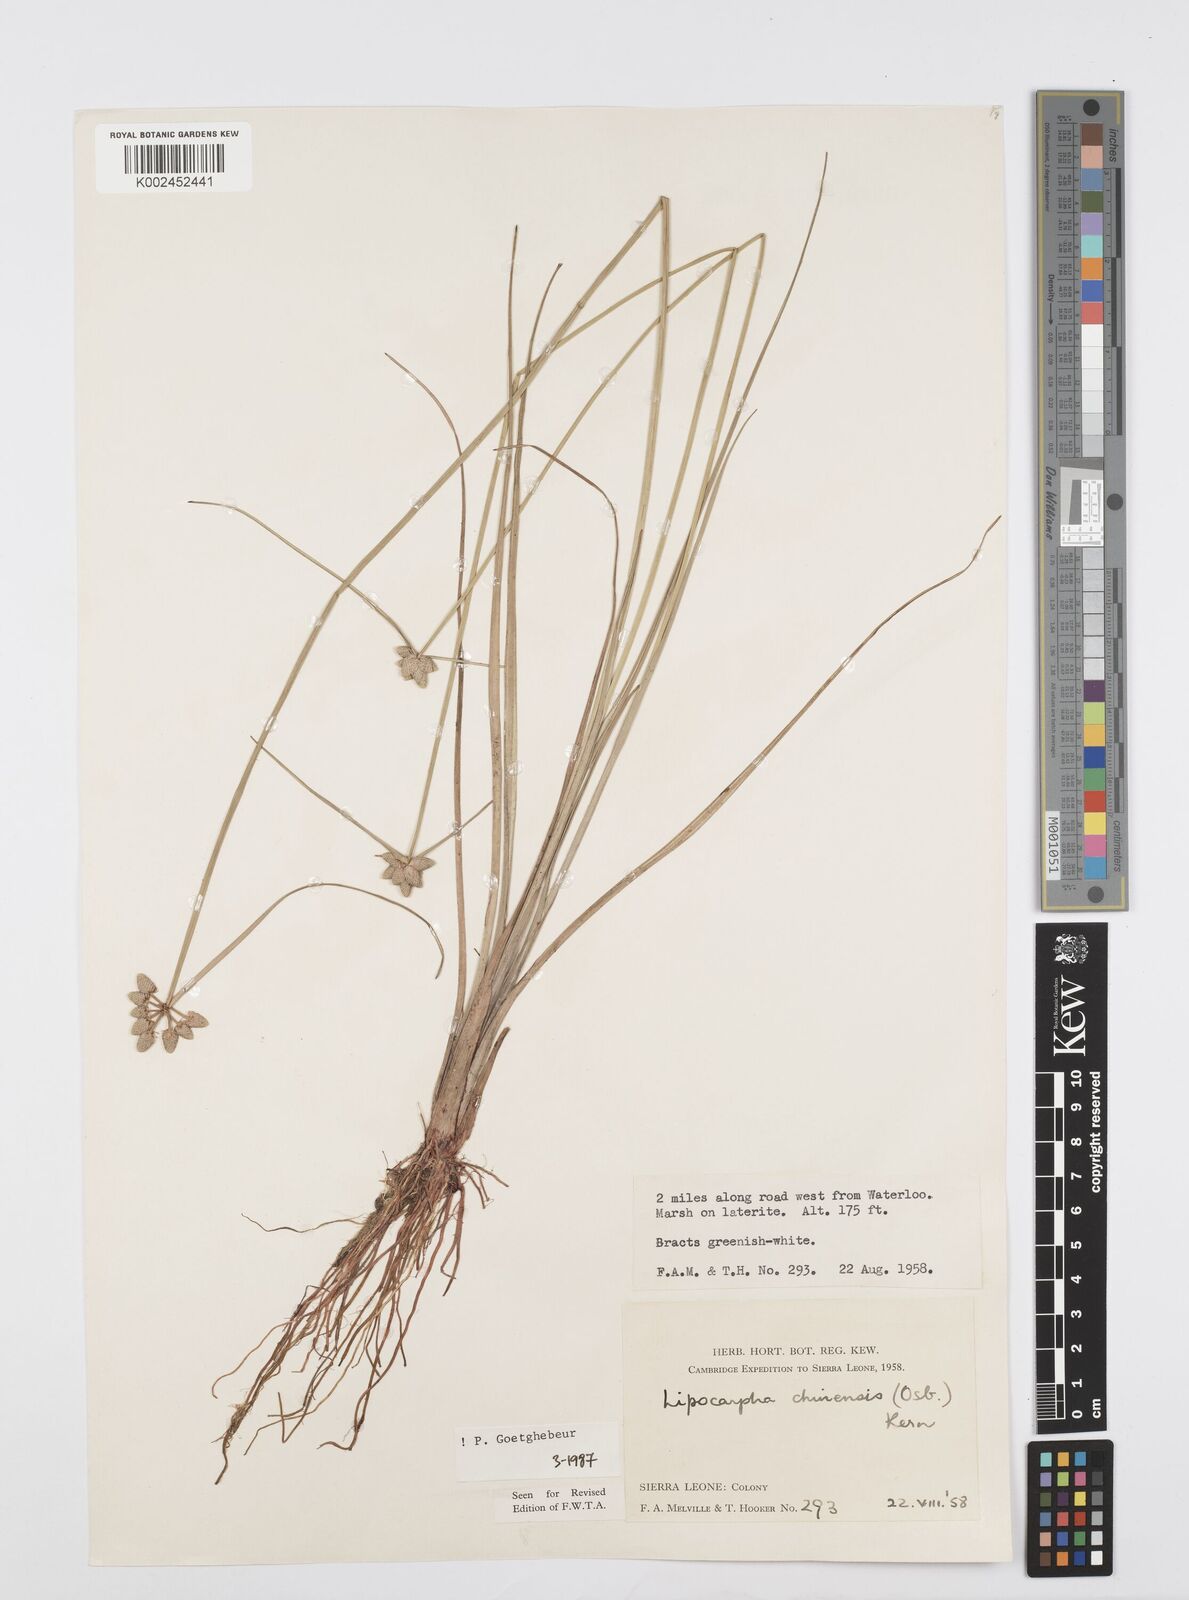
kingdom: Plantae
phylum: Tracheophyta
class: Liliopsida
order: Poales
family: Cyperaceae
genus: Cyperus
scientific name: Cyperus albescens
